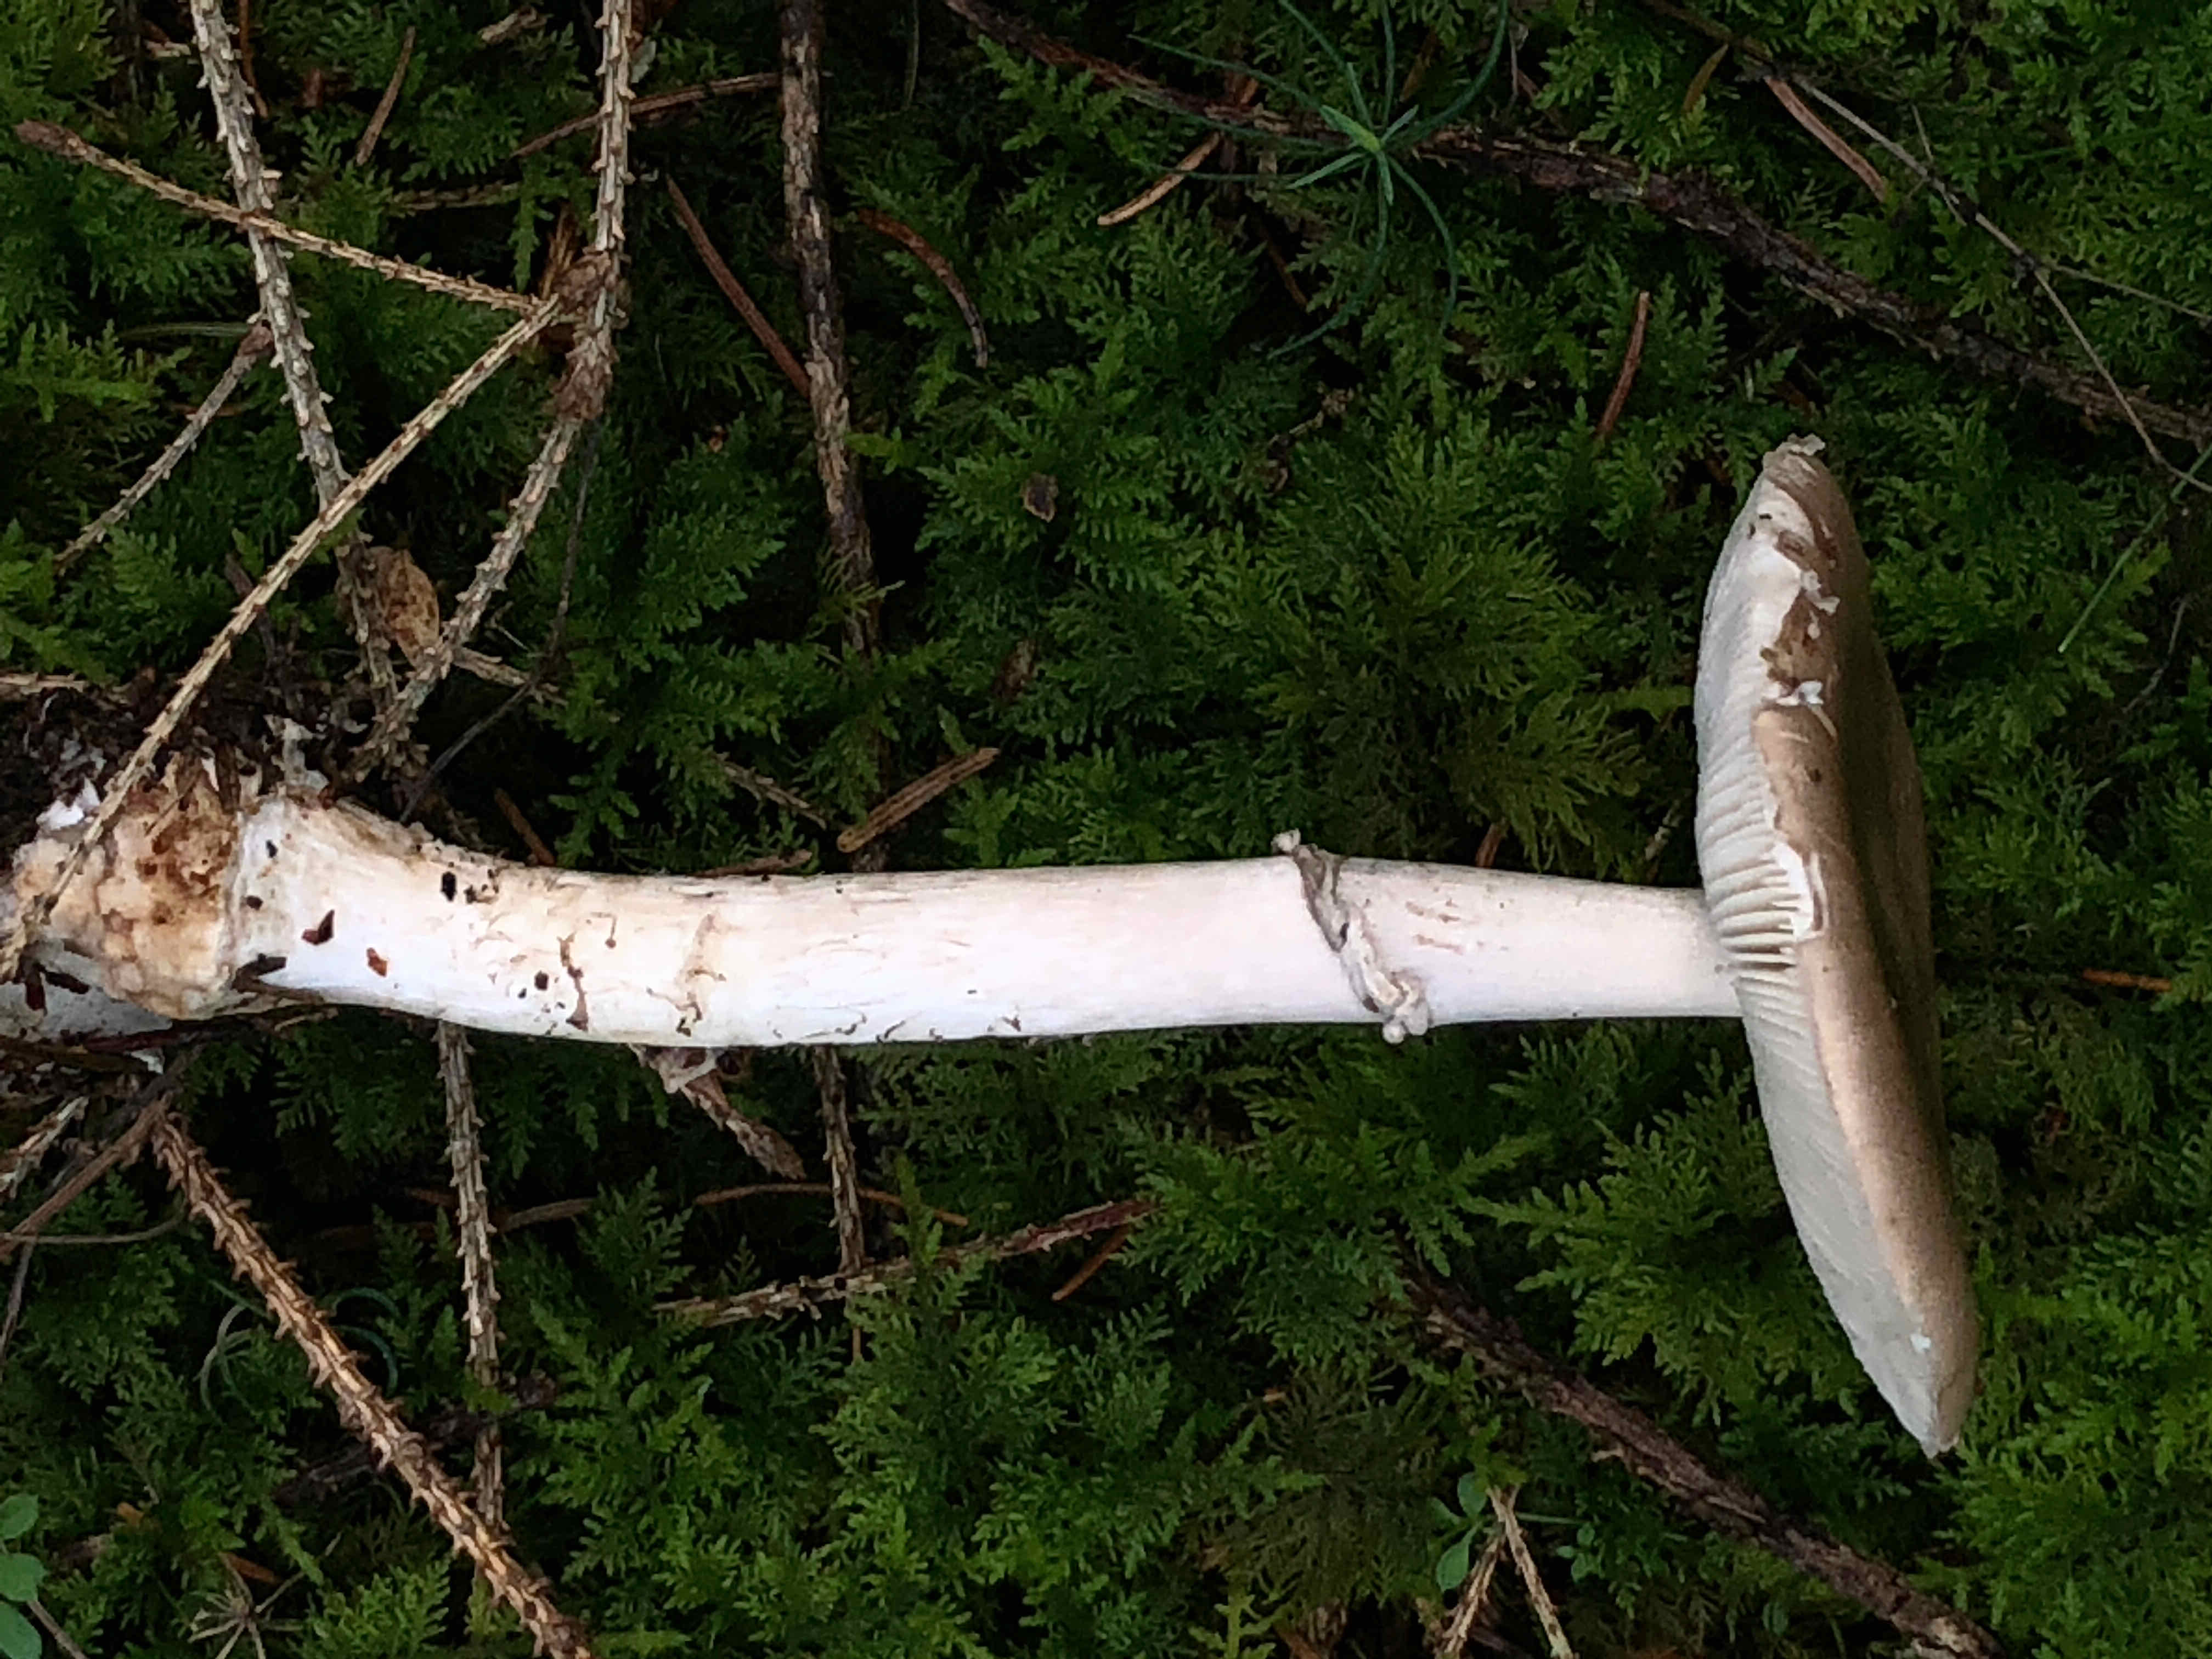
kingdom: Fungi
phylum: Basidiomycota
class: Agaricomycetes
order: Agaricales
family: Amanitaceae
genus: Amanita
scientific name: Amanita porphyria
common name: porfyr-fluesvamp
